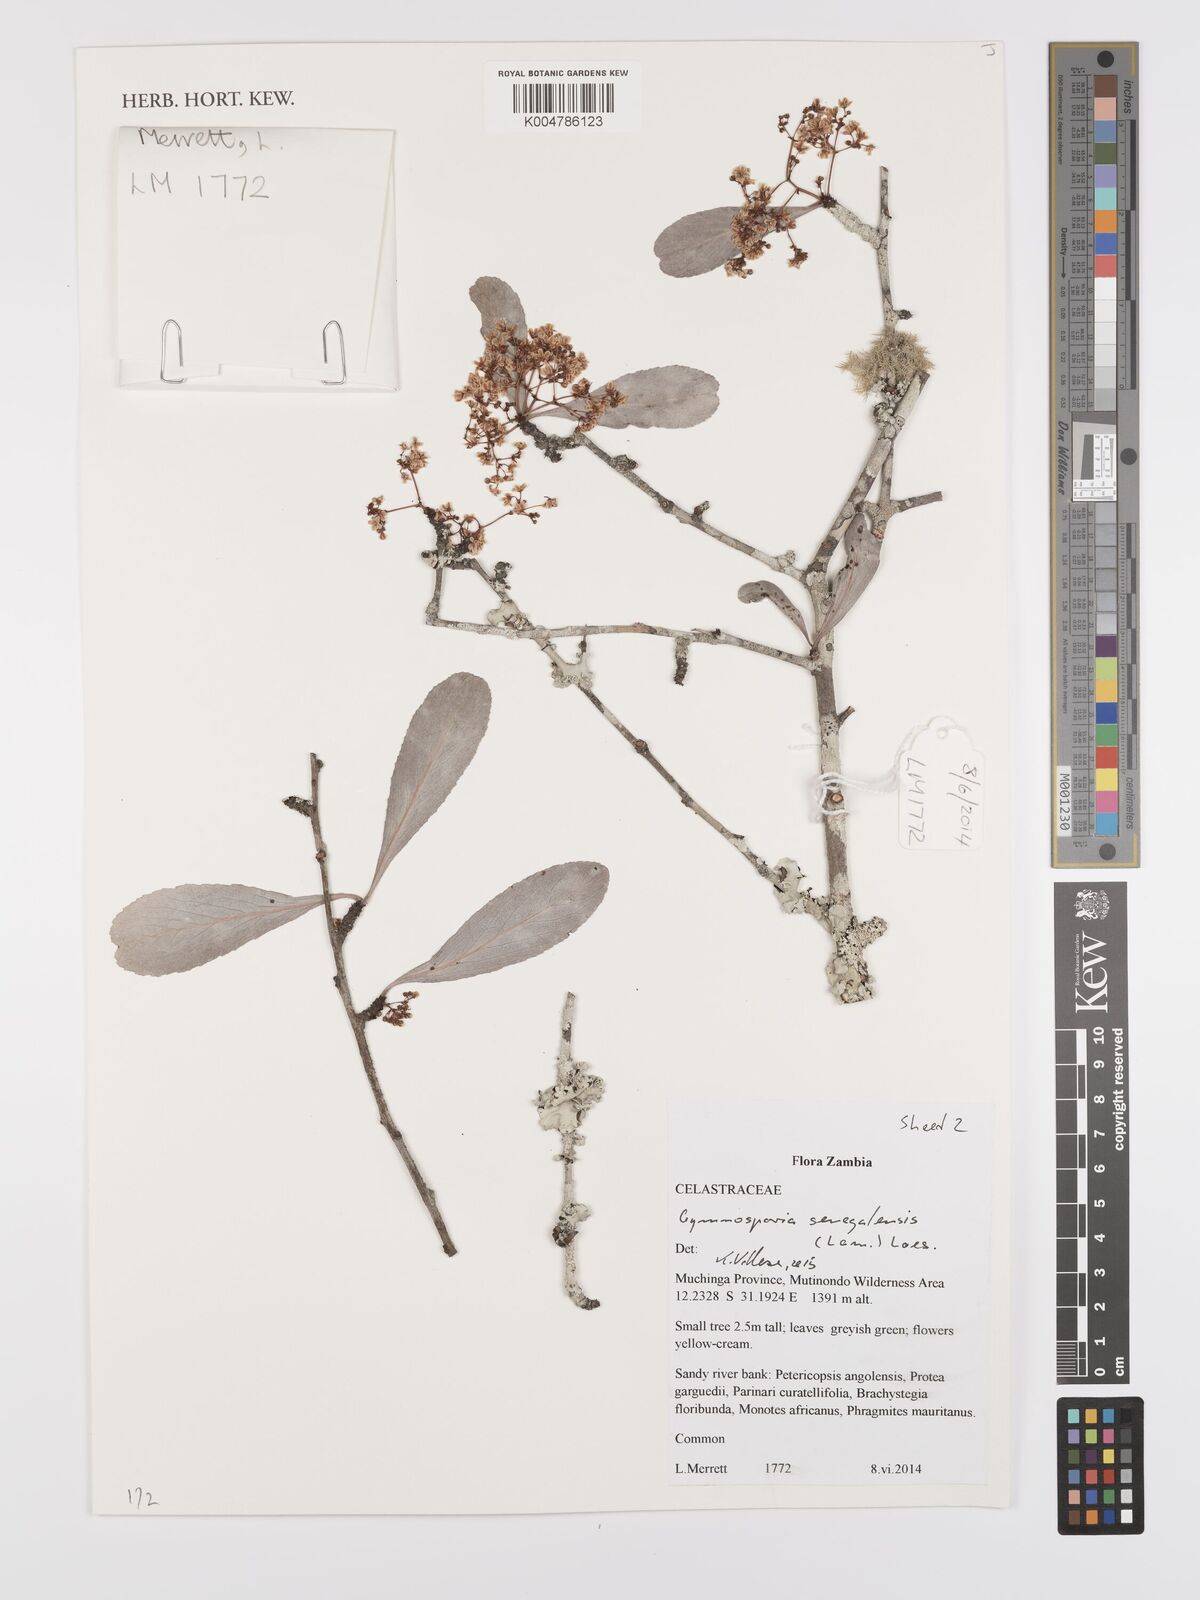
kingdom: Plantae
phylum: Tracheophyta
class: Magnoliopsida
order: Celastrales
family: Celastraceae
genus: Gymnosporia
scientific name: Gymnosporia senegalensis
